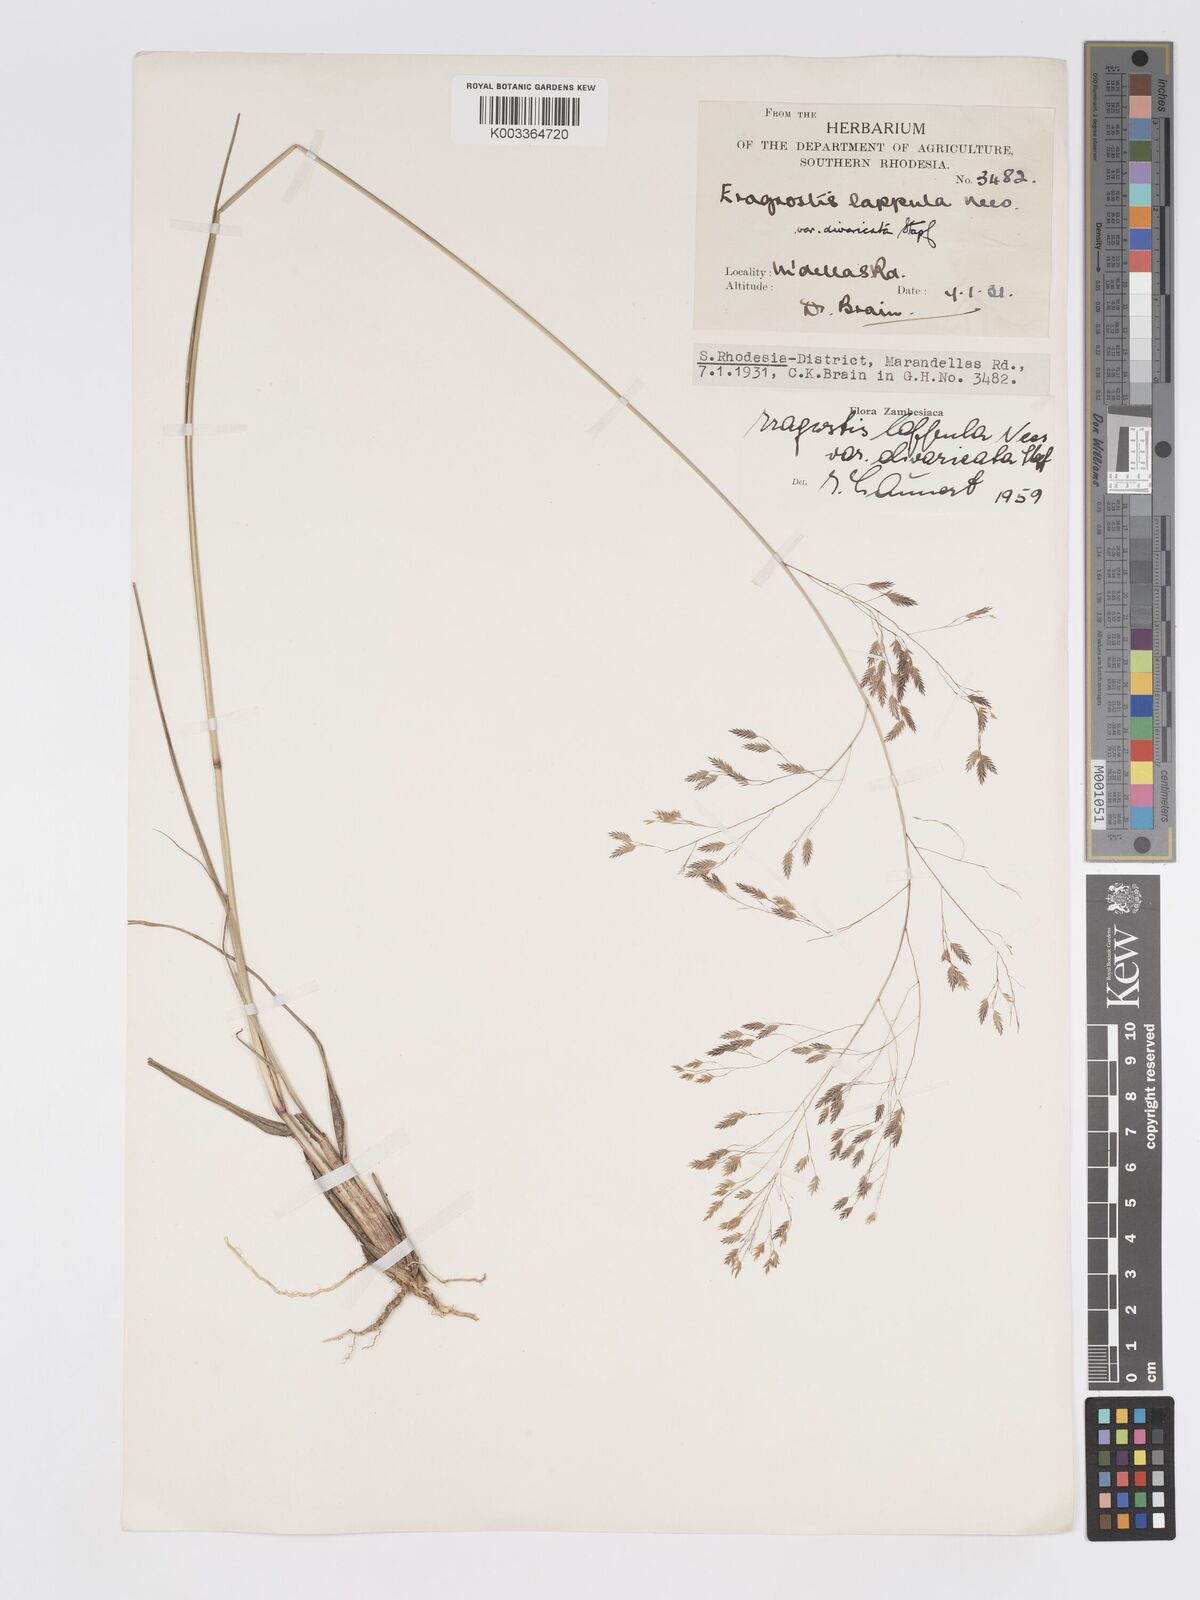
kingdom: Plantae
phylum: Tracheophyta
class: Liliopsida
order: Poales
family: Poaceae
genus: Eragrostis
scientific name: Eragrostis lappula
